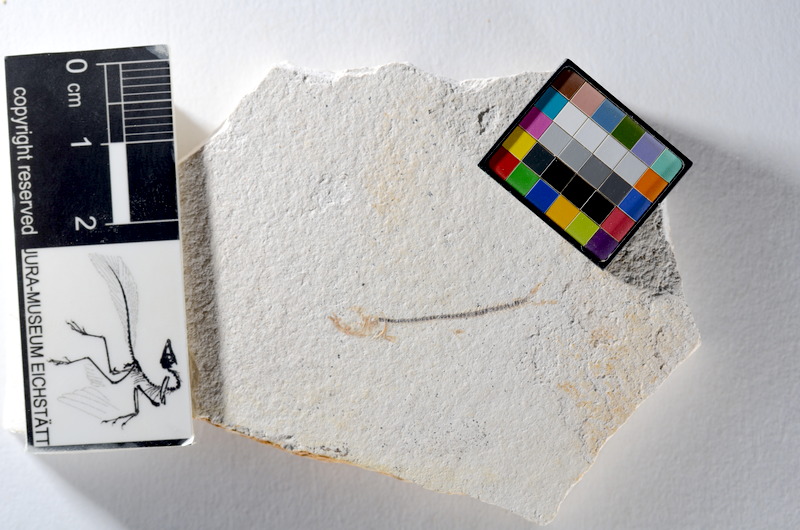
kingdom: Animalia
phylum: Chordata
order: Salmoniformes
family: Orthogonikleithridae
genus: Orthogonikleithrus
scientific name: Orthogonikleithrus hoelli
